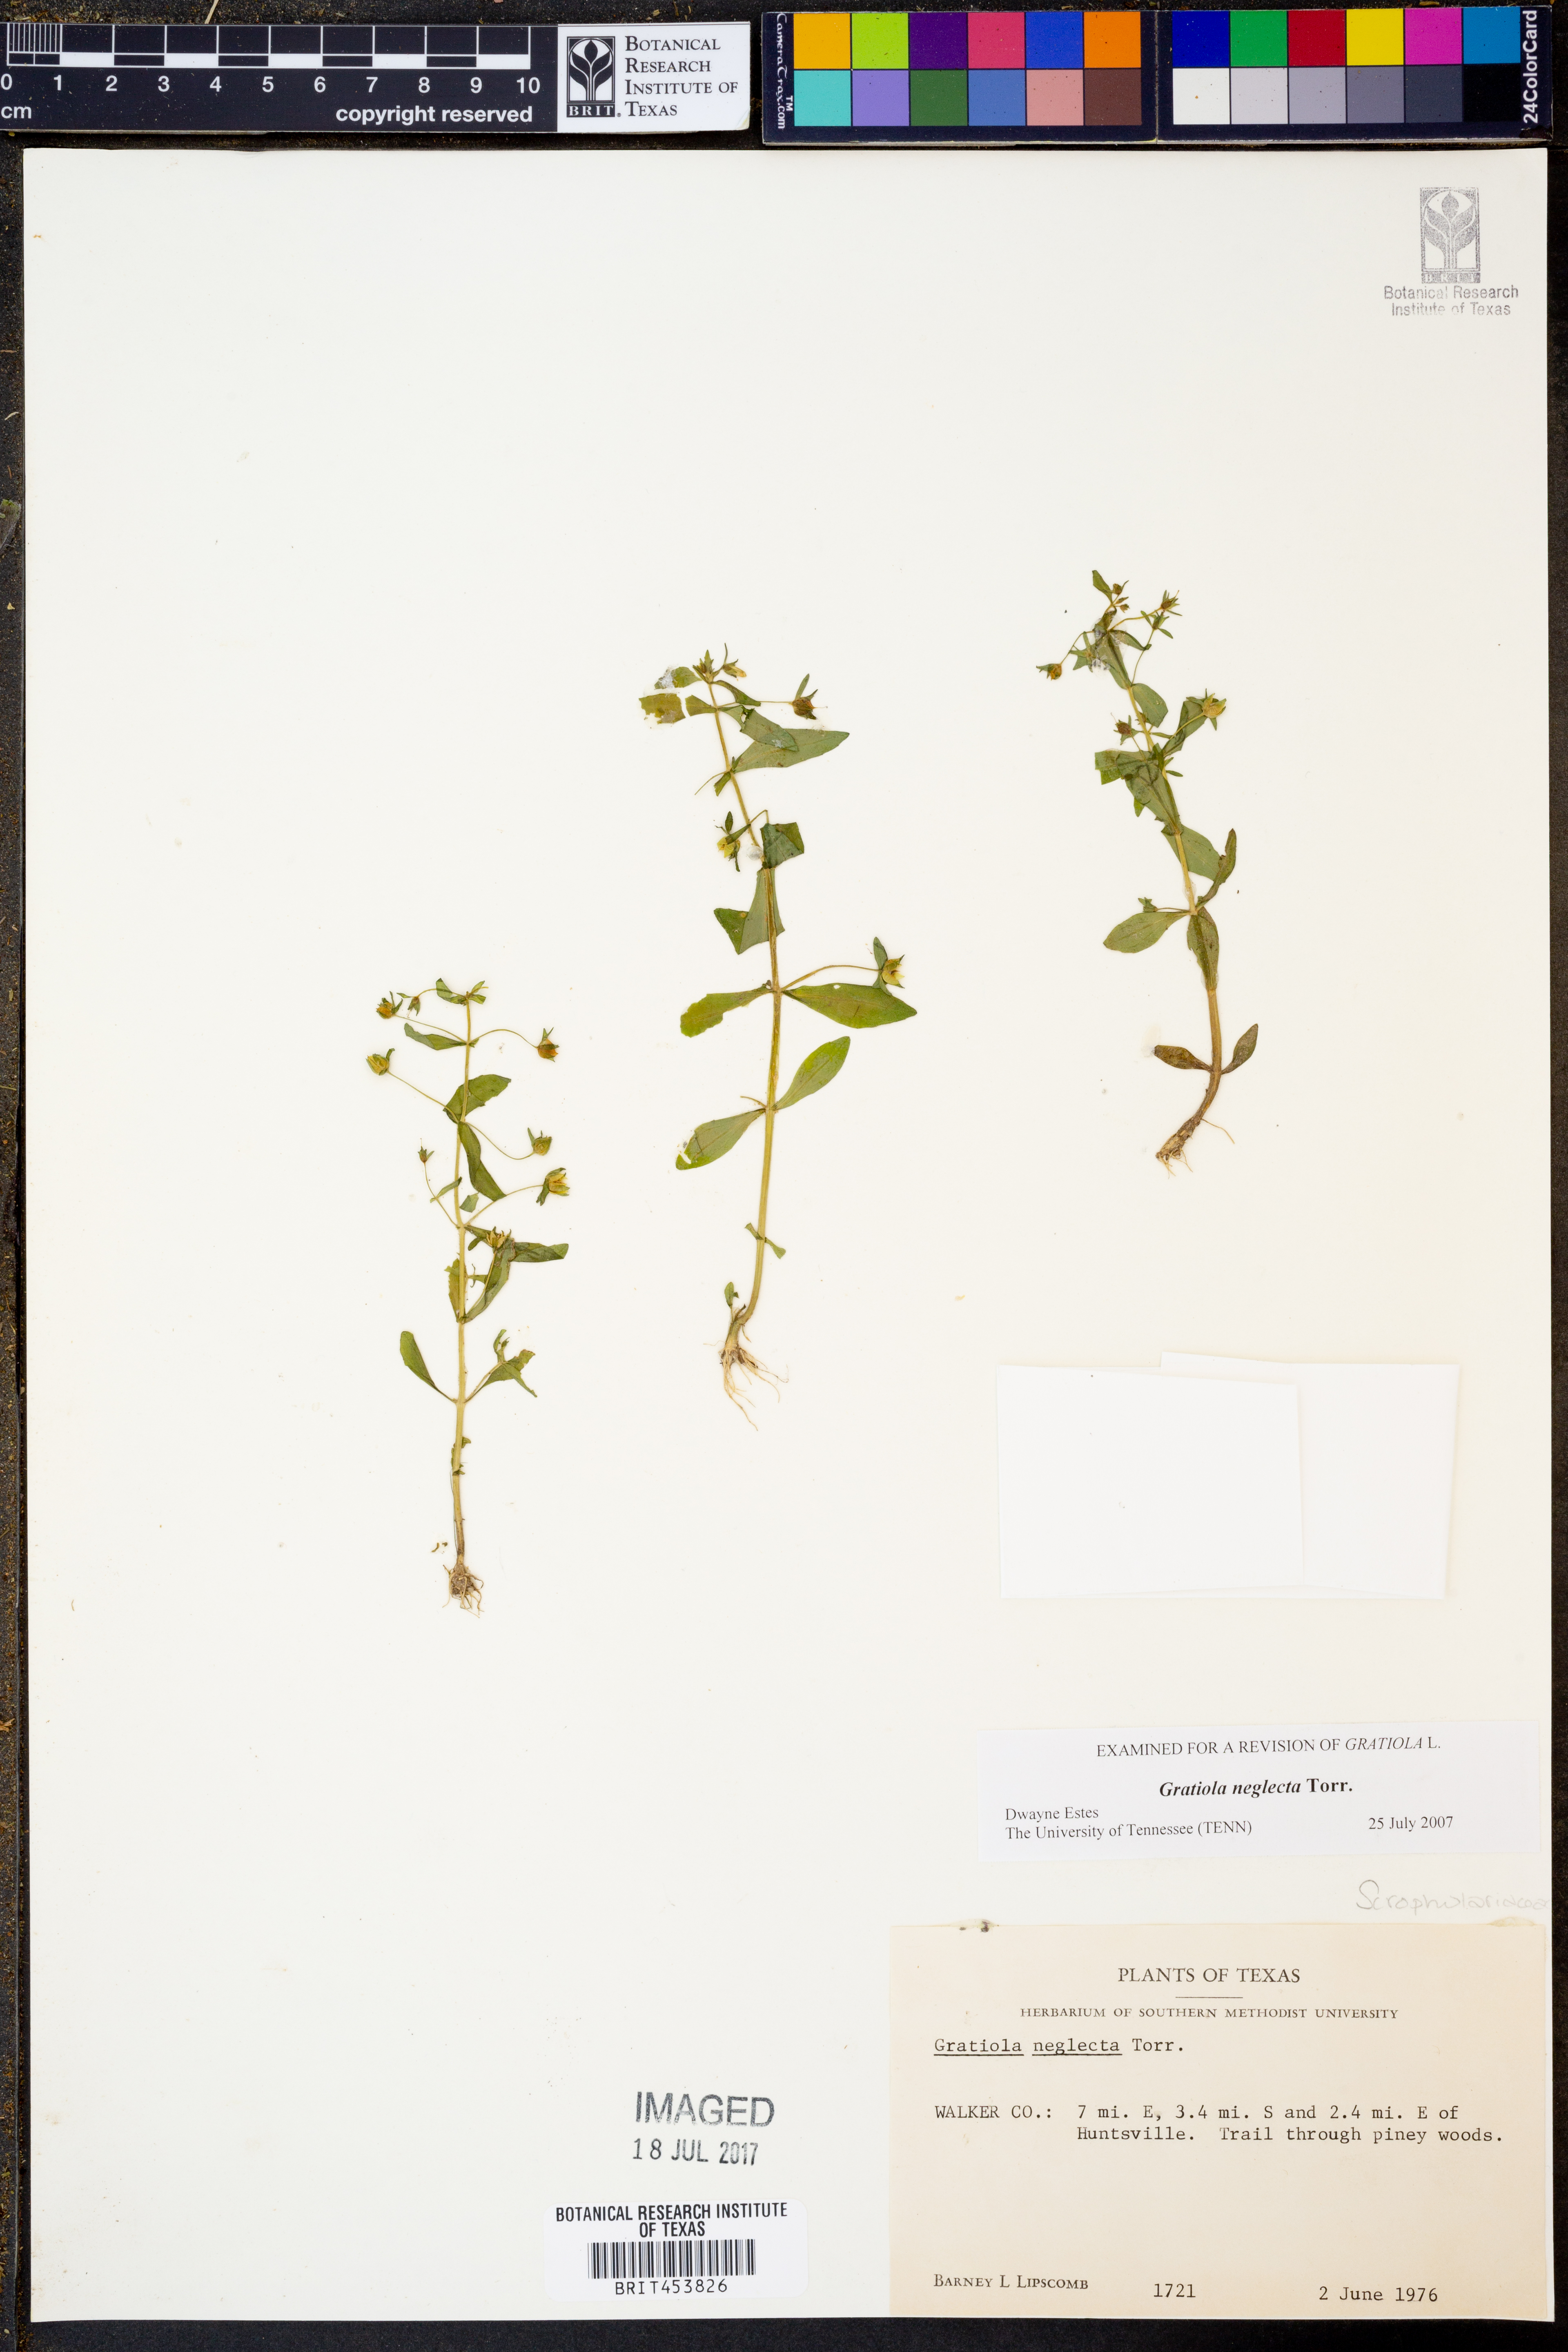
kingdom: Plantae
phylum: Tracheophyta
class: Magnoliopsida
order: Lamiales
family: Plantaginaceae
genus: Gratiola
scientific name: Gratiola neglecta
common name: American hedge-hyssop
